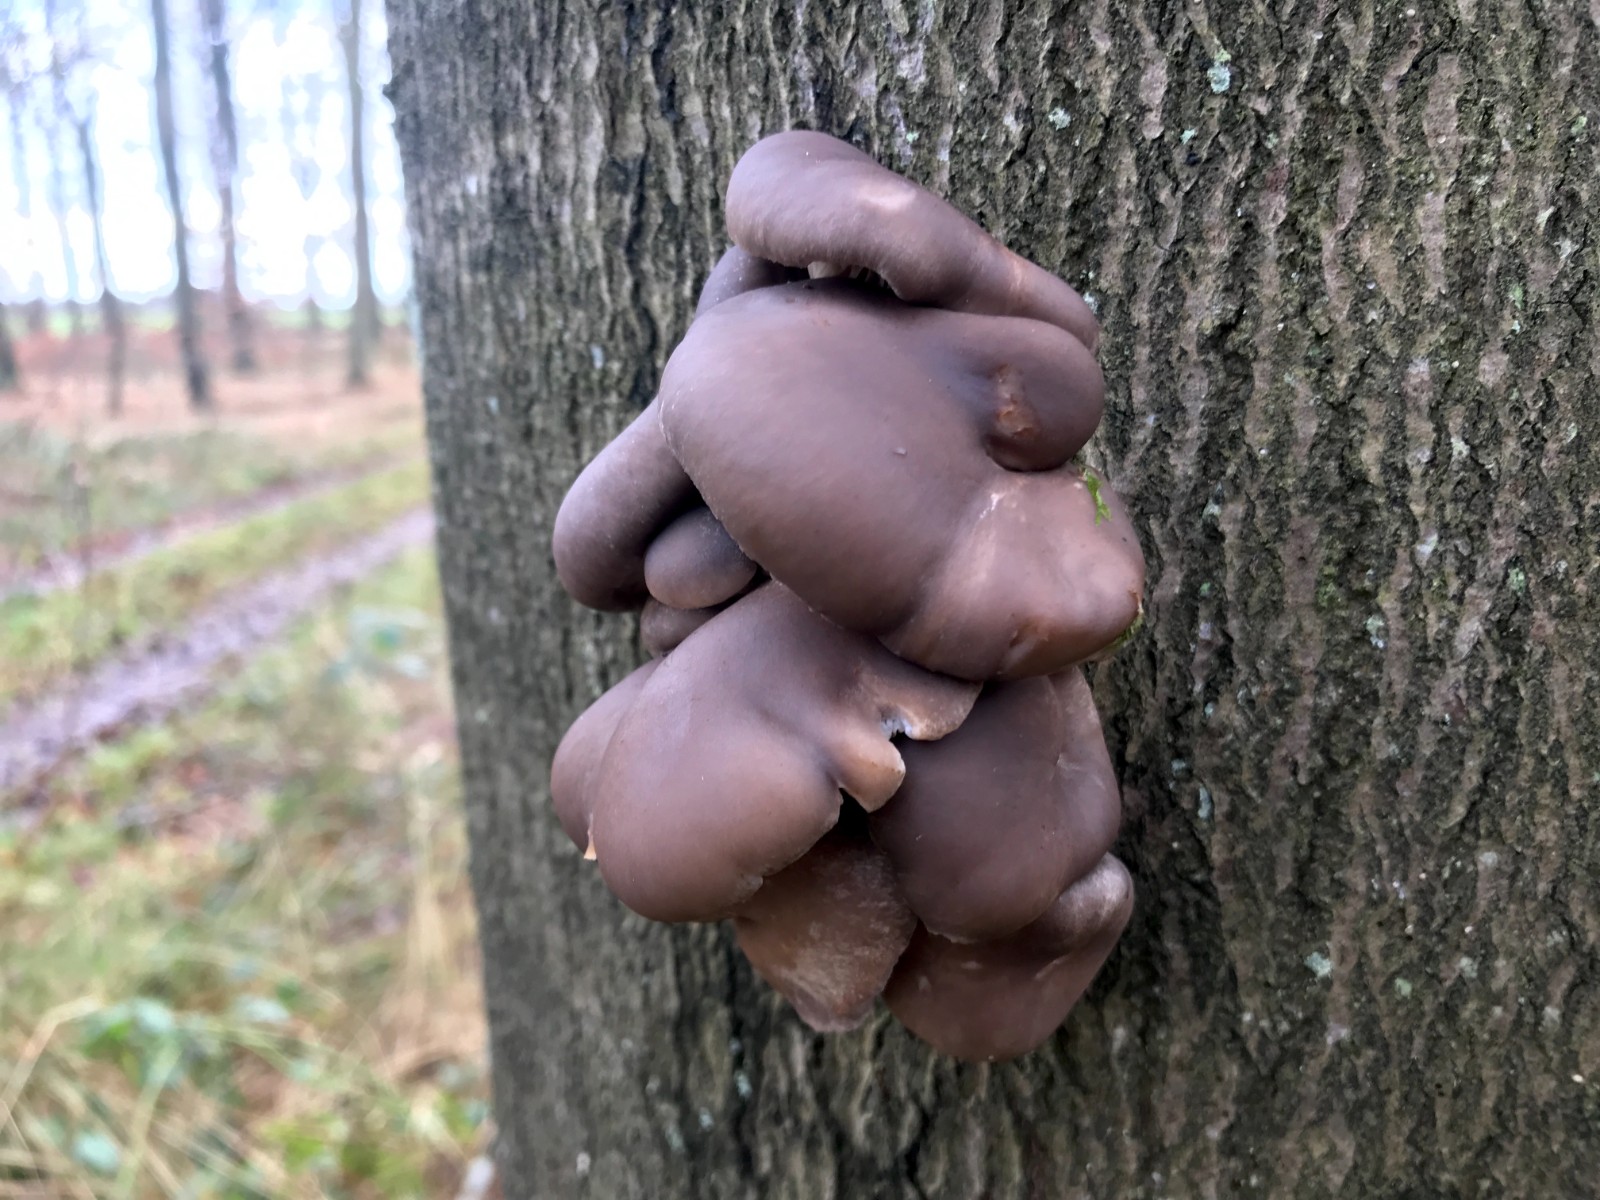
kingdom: Fungi
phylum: Basidiomycota
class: Agaricomycetes
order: Agaricales
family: Pleurotaceae
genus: Pleurotus
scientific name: Pleurotus ostreatus
